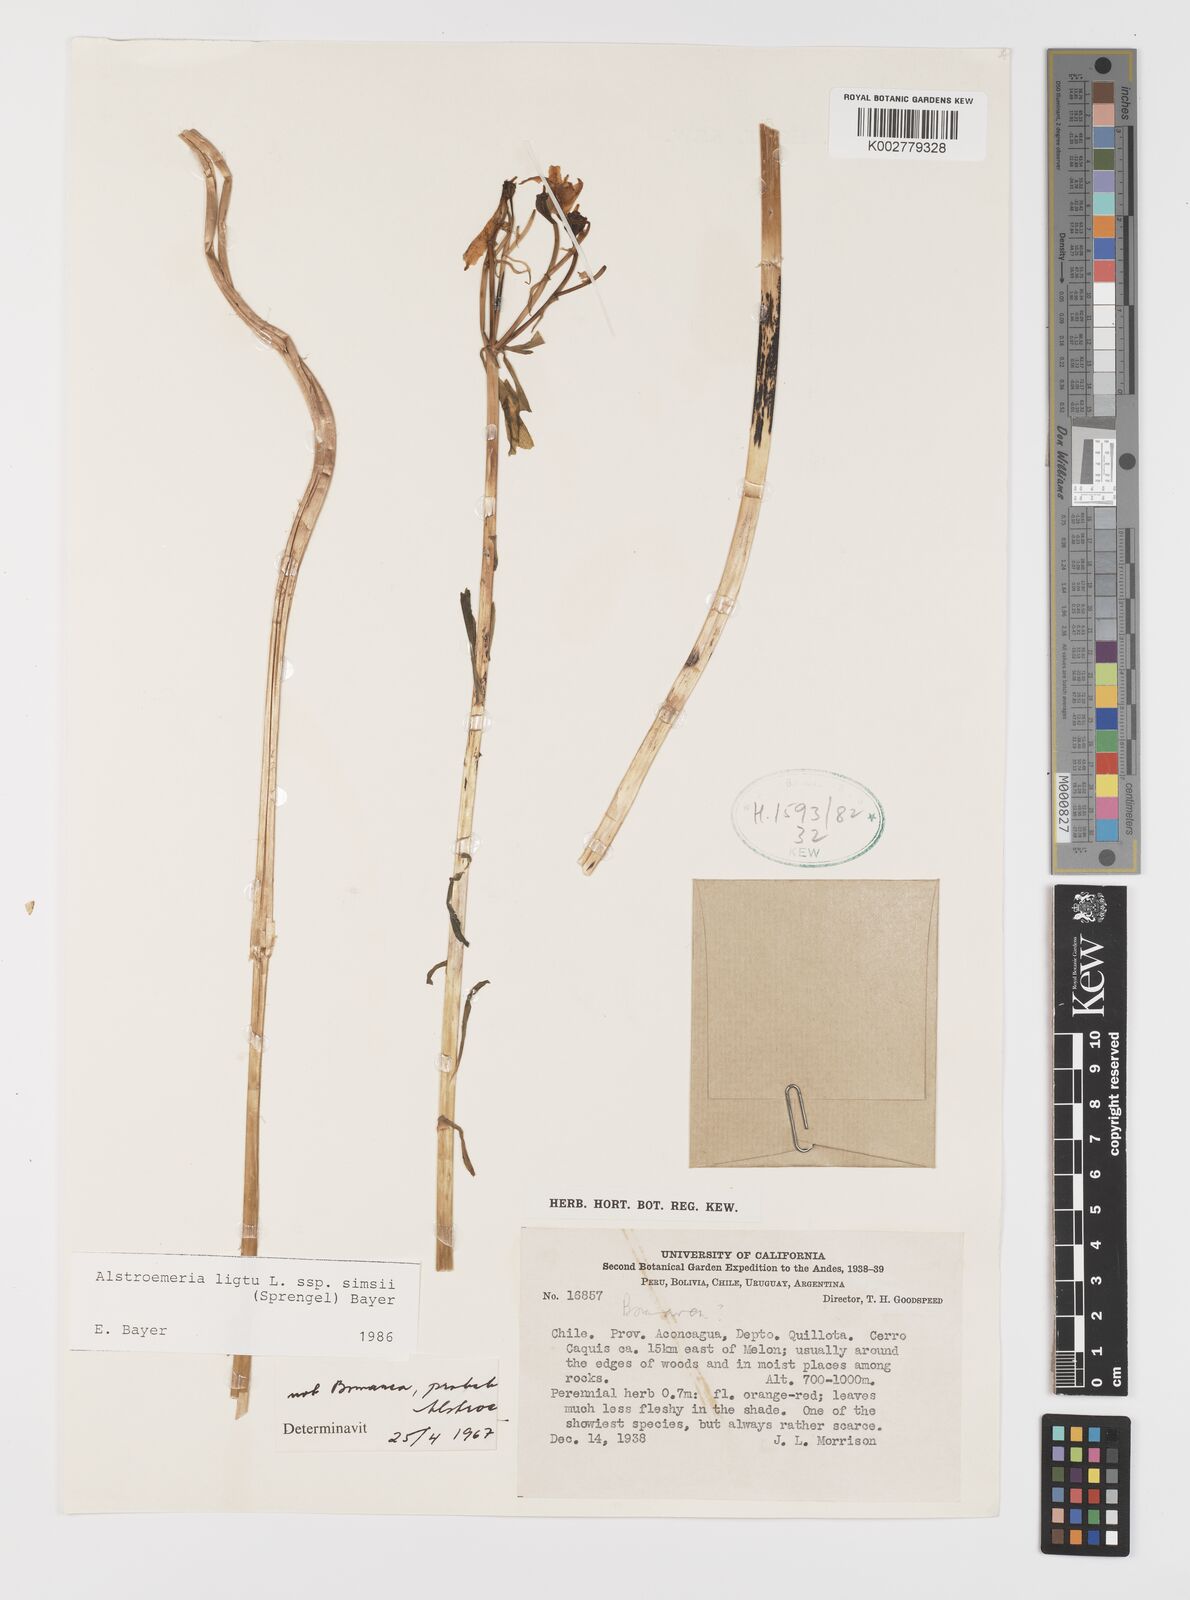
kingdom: Plantae
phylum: Tracheophyta
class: Liliopsida
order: Liliales
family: Alstroemeriaceae
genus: Alstroemeria
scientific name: Alstroemeria ligtu
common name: St. martin's-flower
